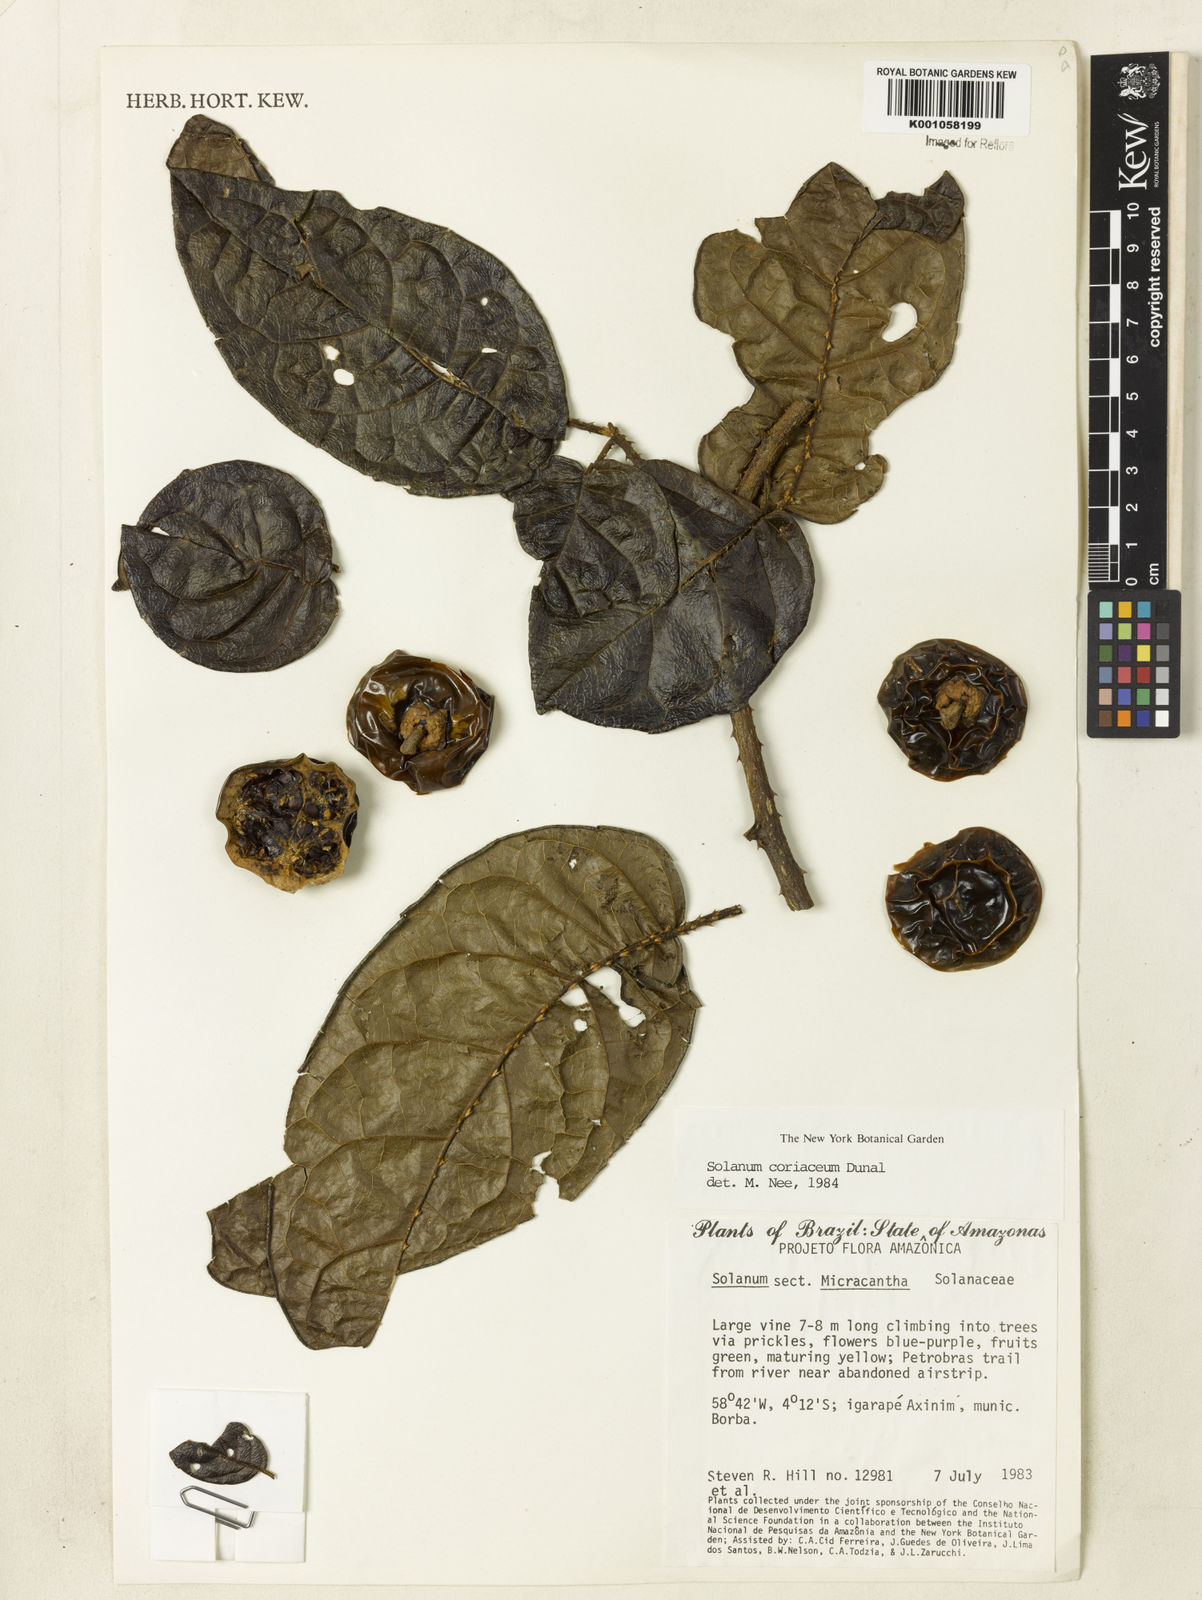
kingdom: Plantae
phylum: Tracheophyta
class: Magnoliopsida
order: Solanales
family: Solanaceae
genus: Solanum
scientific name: Solanum coriaceum
